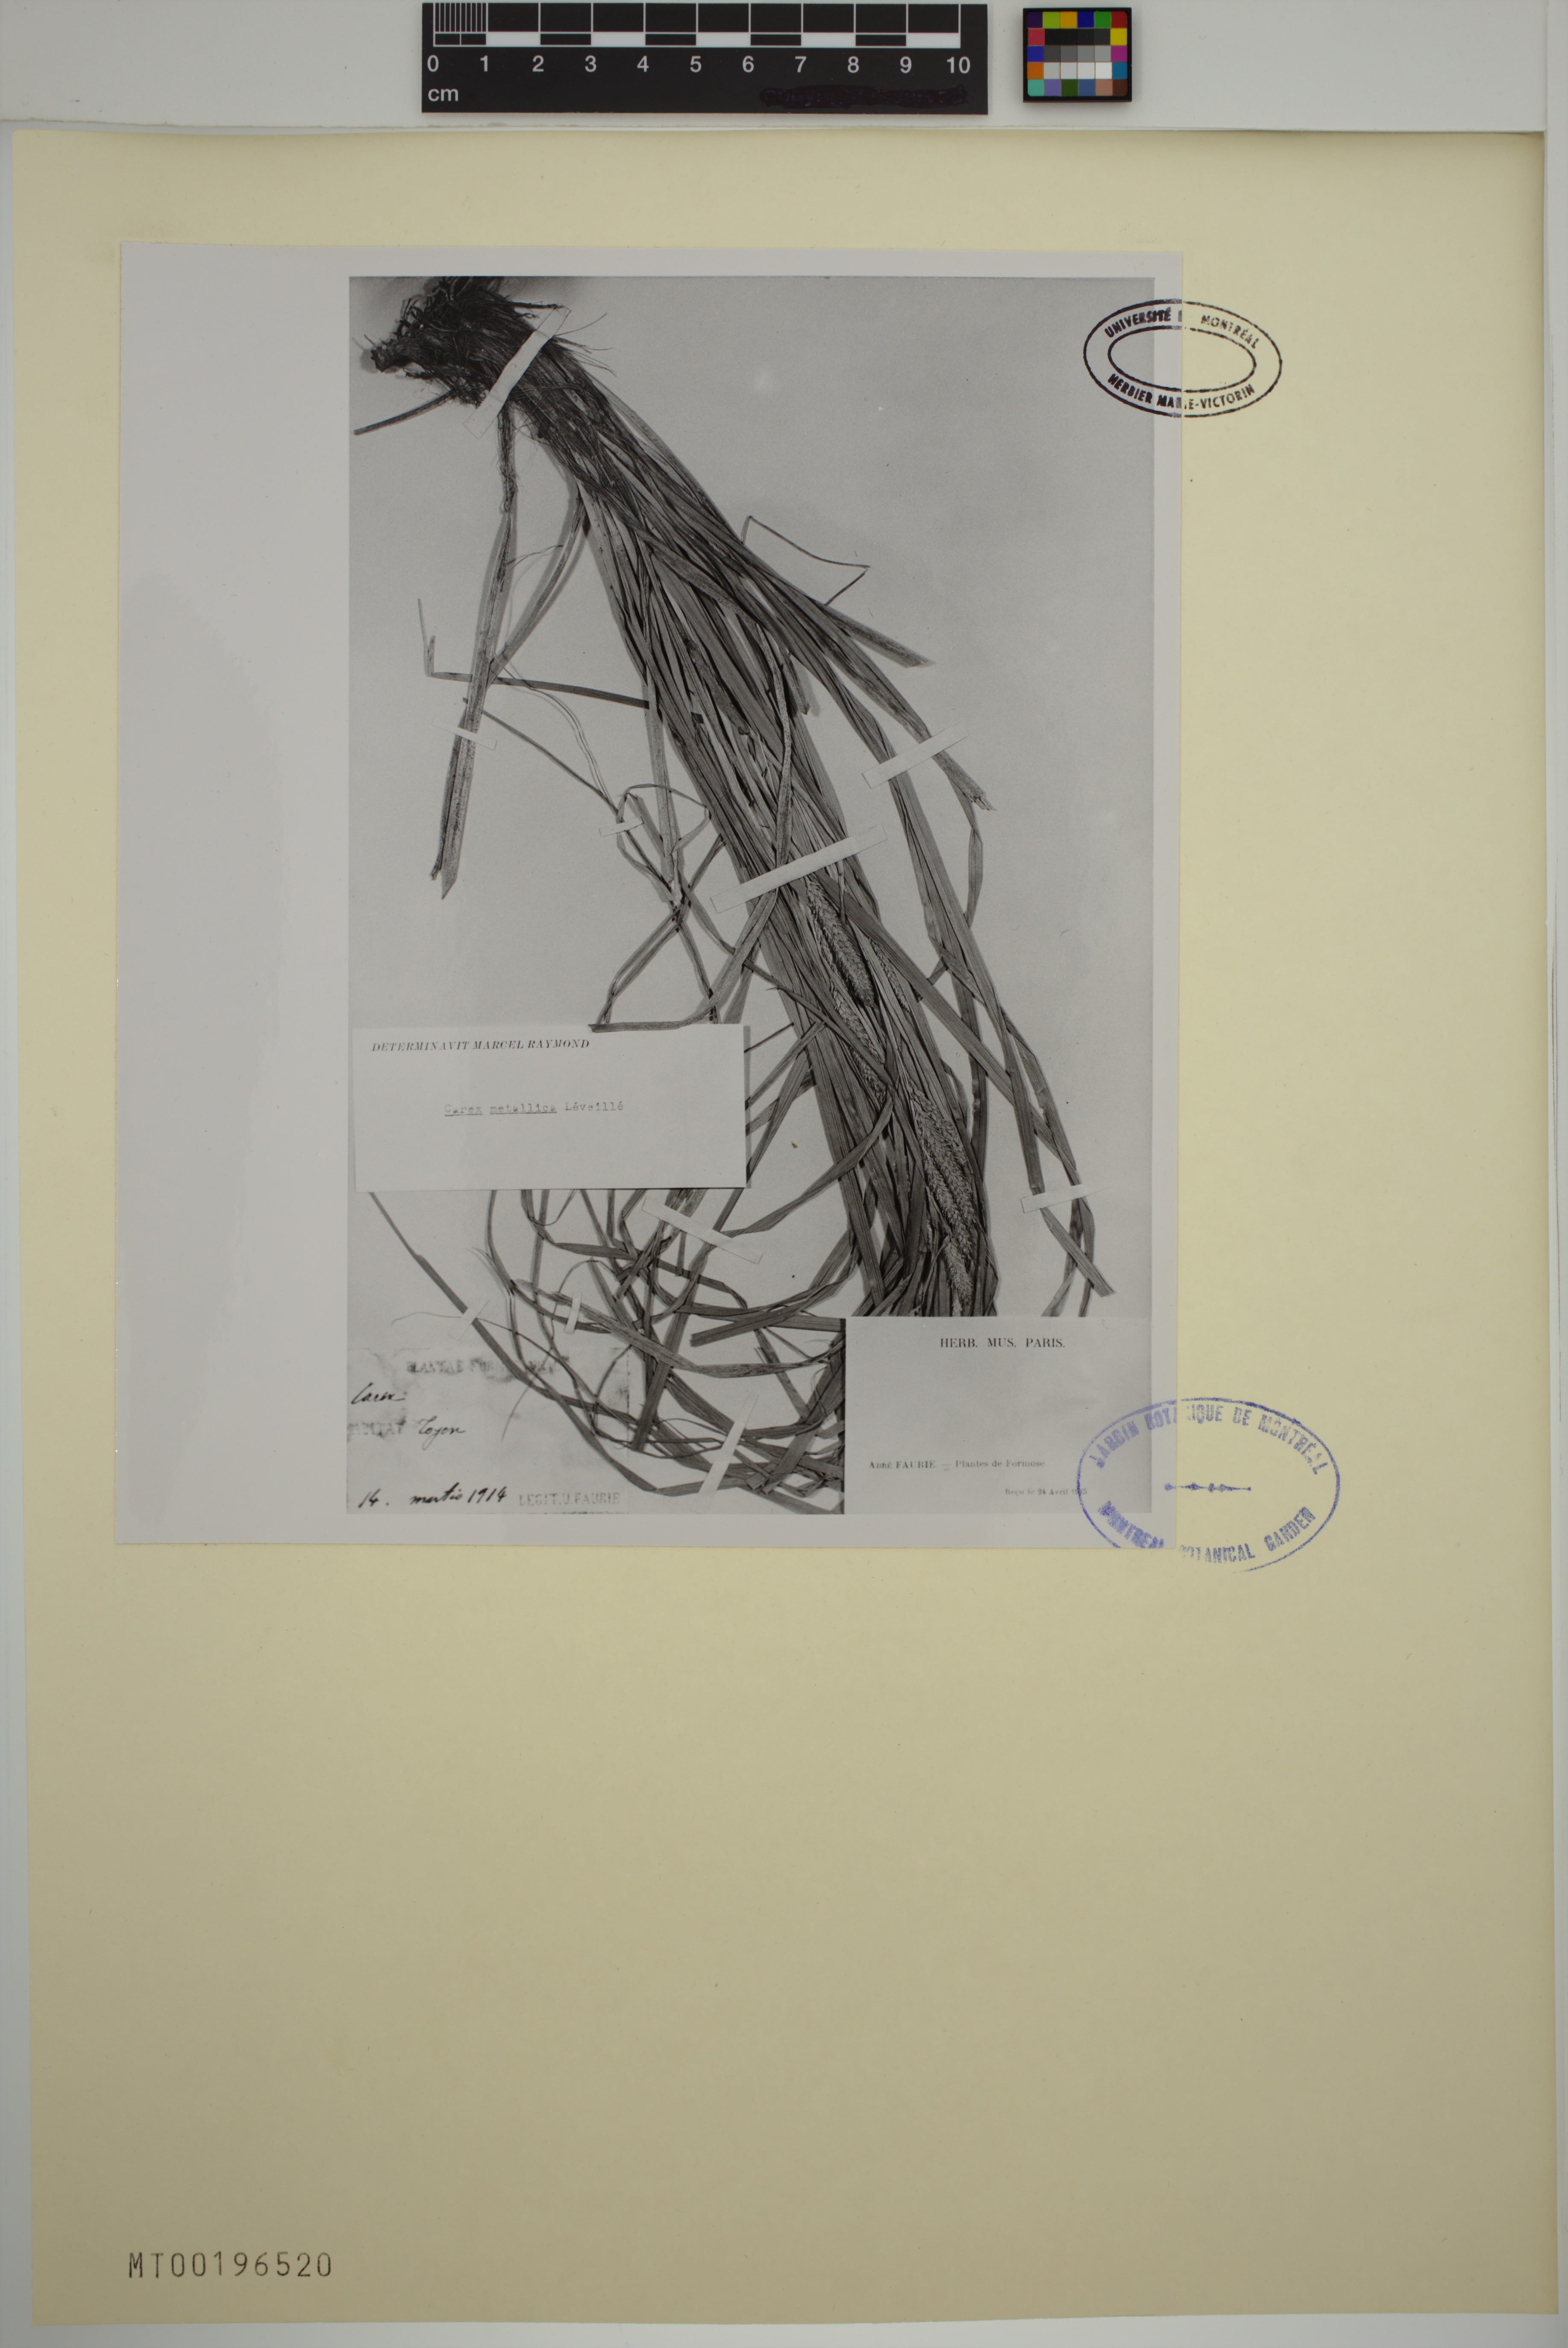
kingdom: Plantae
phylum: Tracheophyta
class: Liliopsida
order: Poales
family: Cyperaceae
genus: Carex
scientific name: Carex metallica
